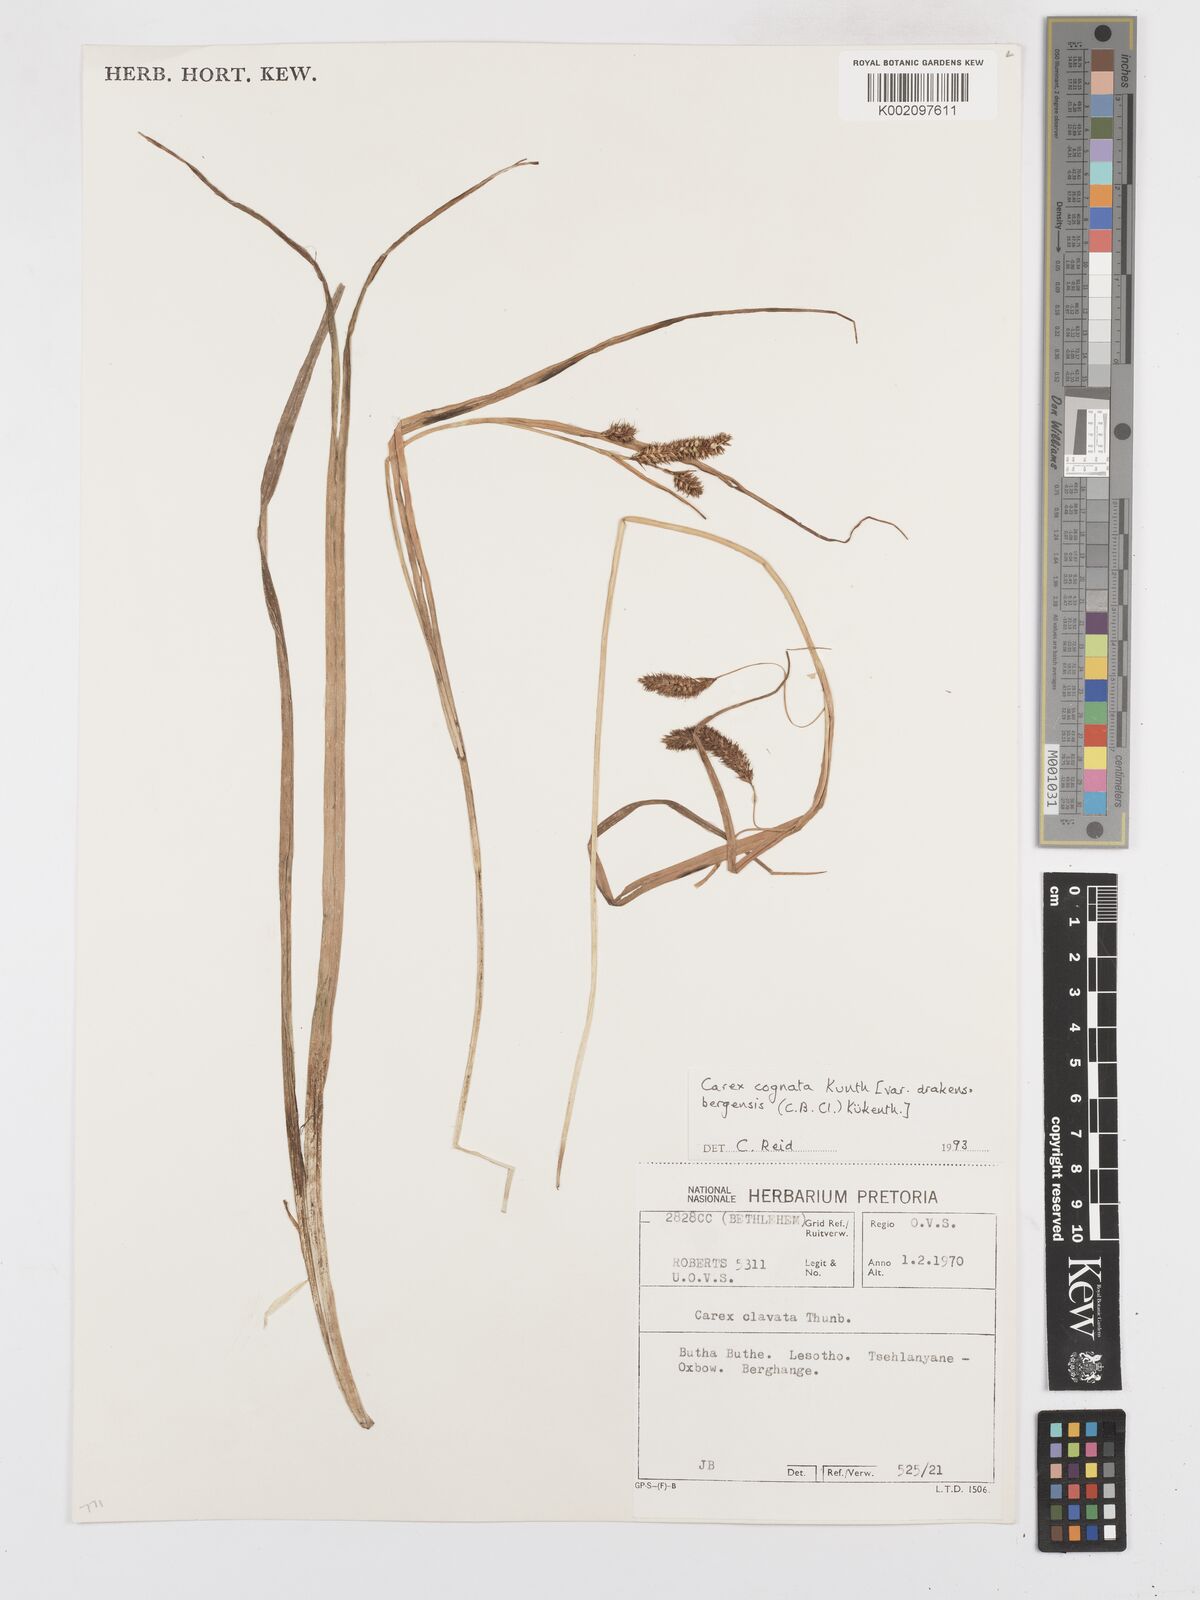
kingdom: Plantae
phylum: Tracheophyta
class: Liliopsida
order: Poales
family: Cyperaceae
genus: Carex
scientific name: Carex cognata
